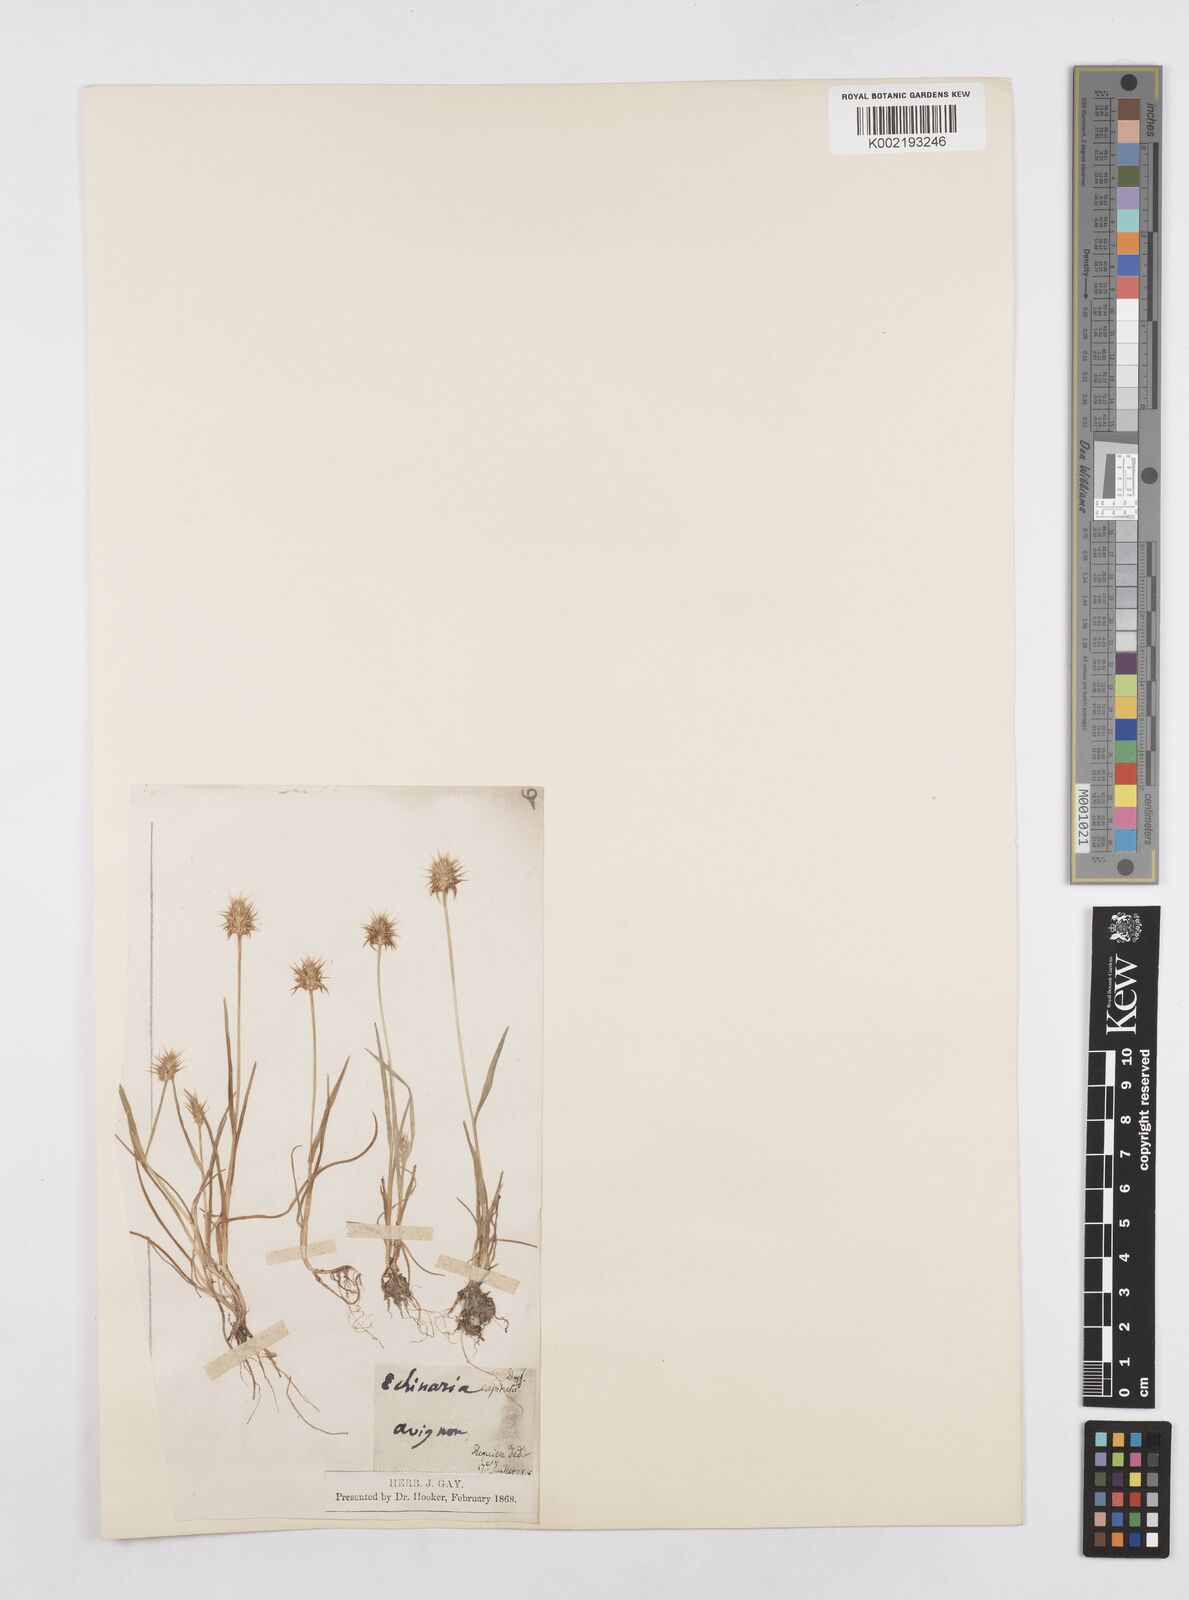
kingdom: Plantae
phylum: Tracheophyta
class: Liliopsida
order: Poales
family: Poaceae
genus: Echinaria
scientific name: Echinaria capitata
